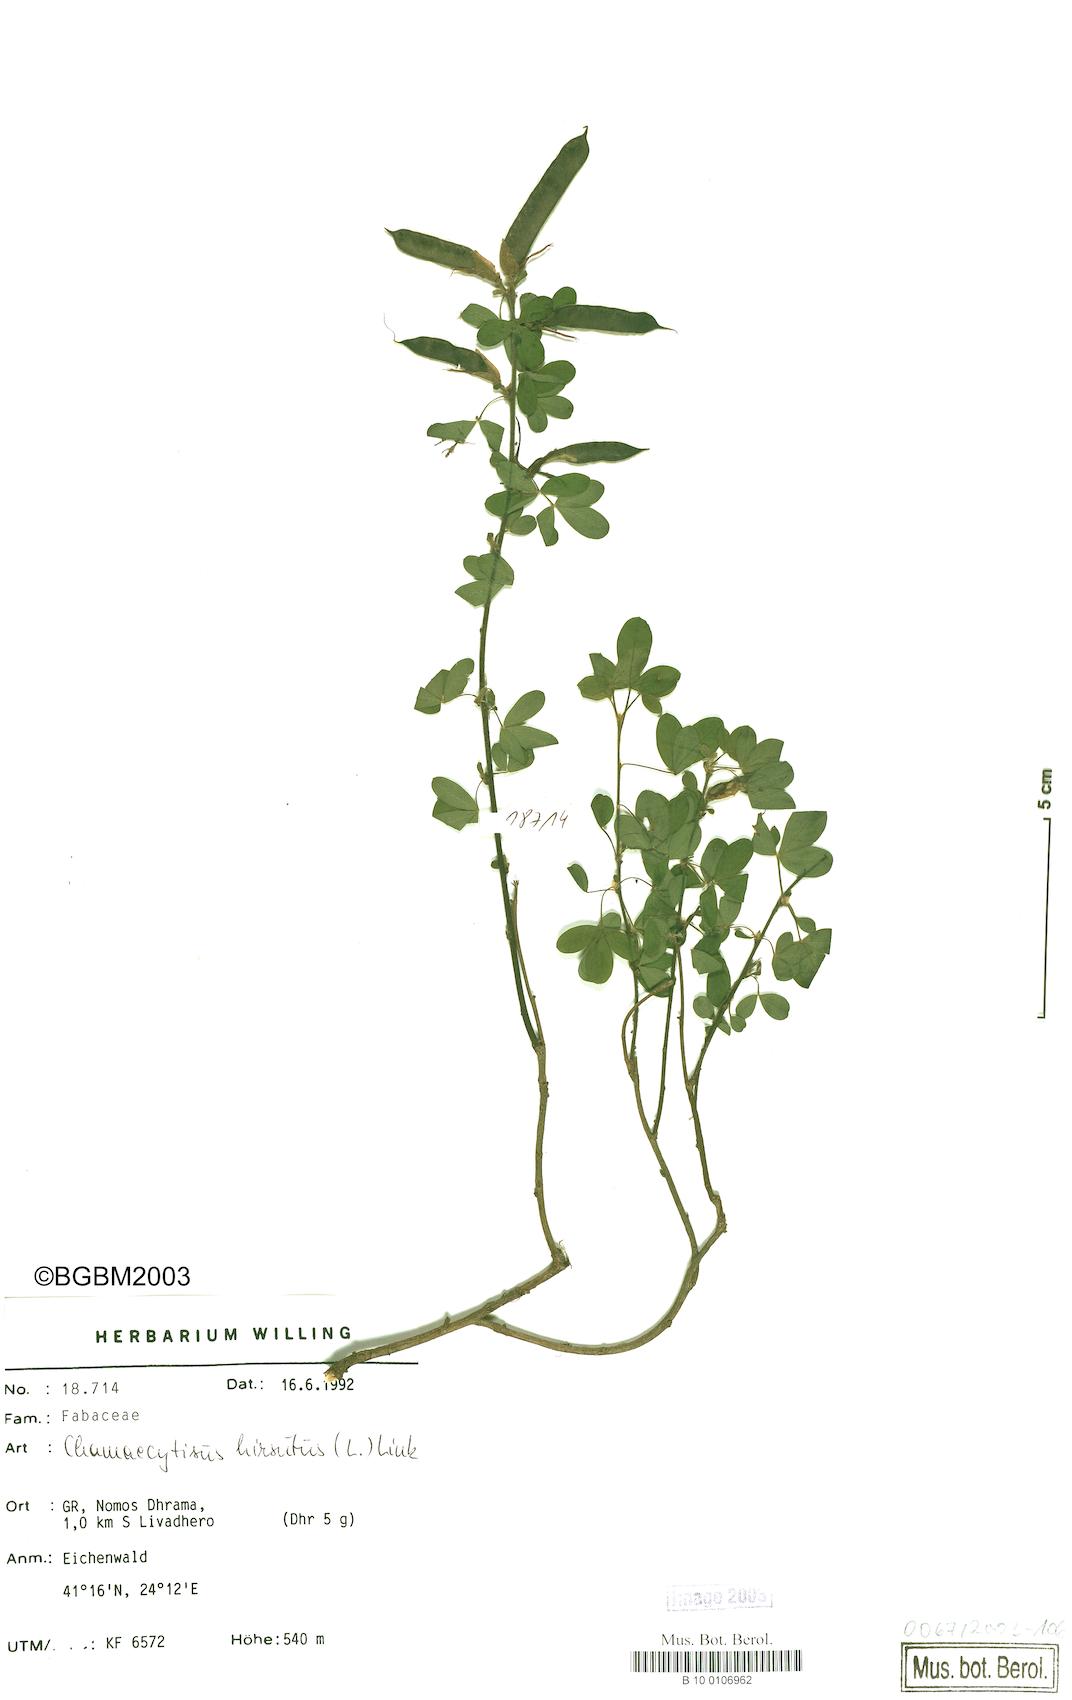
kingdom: Plantae
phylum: Tracheophyta
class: Magnoliopsida
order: Fabales
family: Fabaceae
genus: Chamaecytisus
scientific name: Chamaecytisus hirsutus
